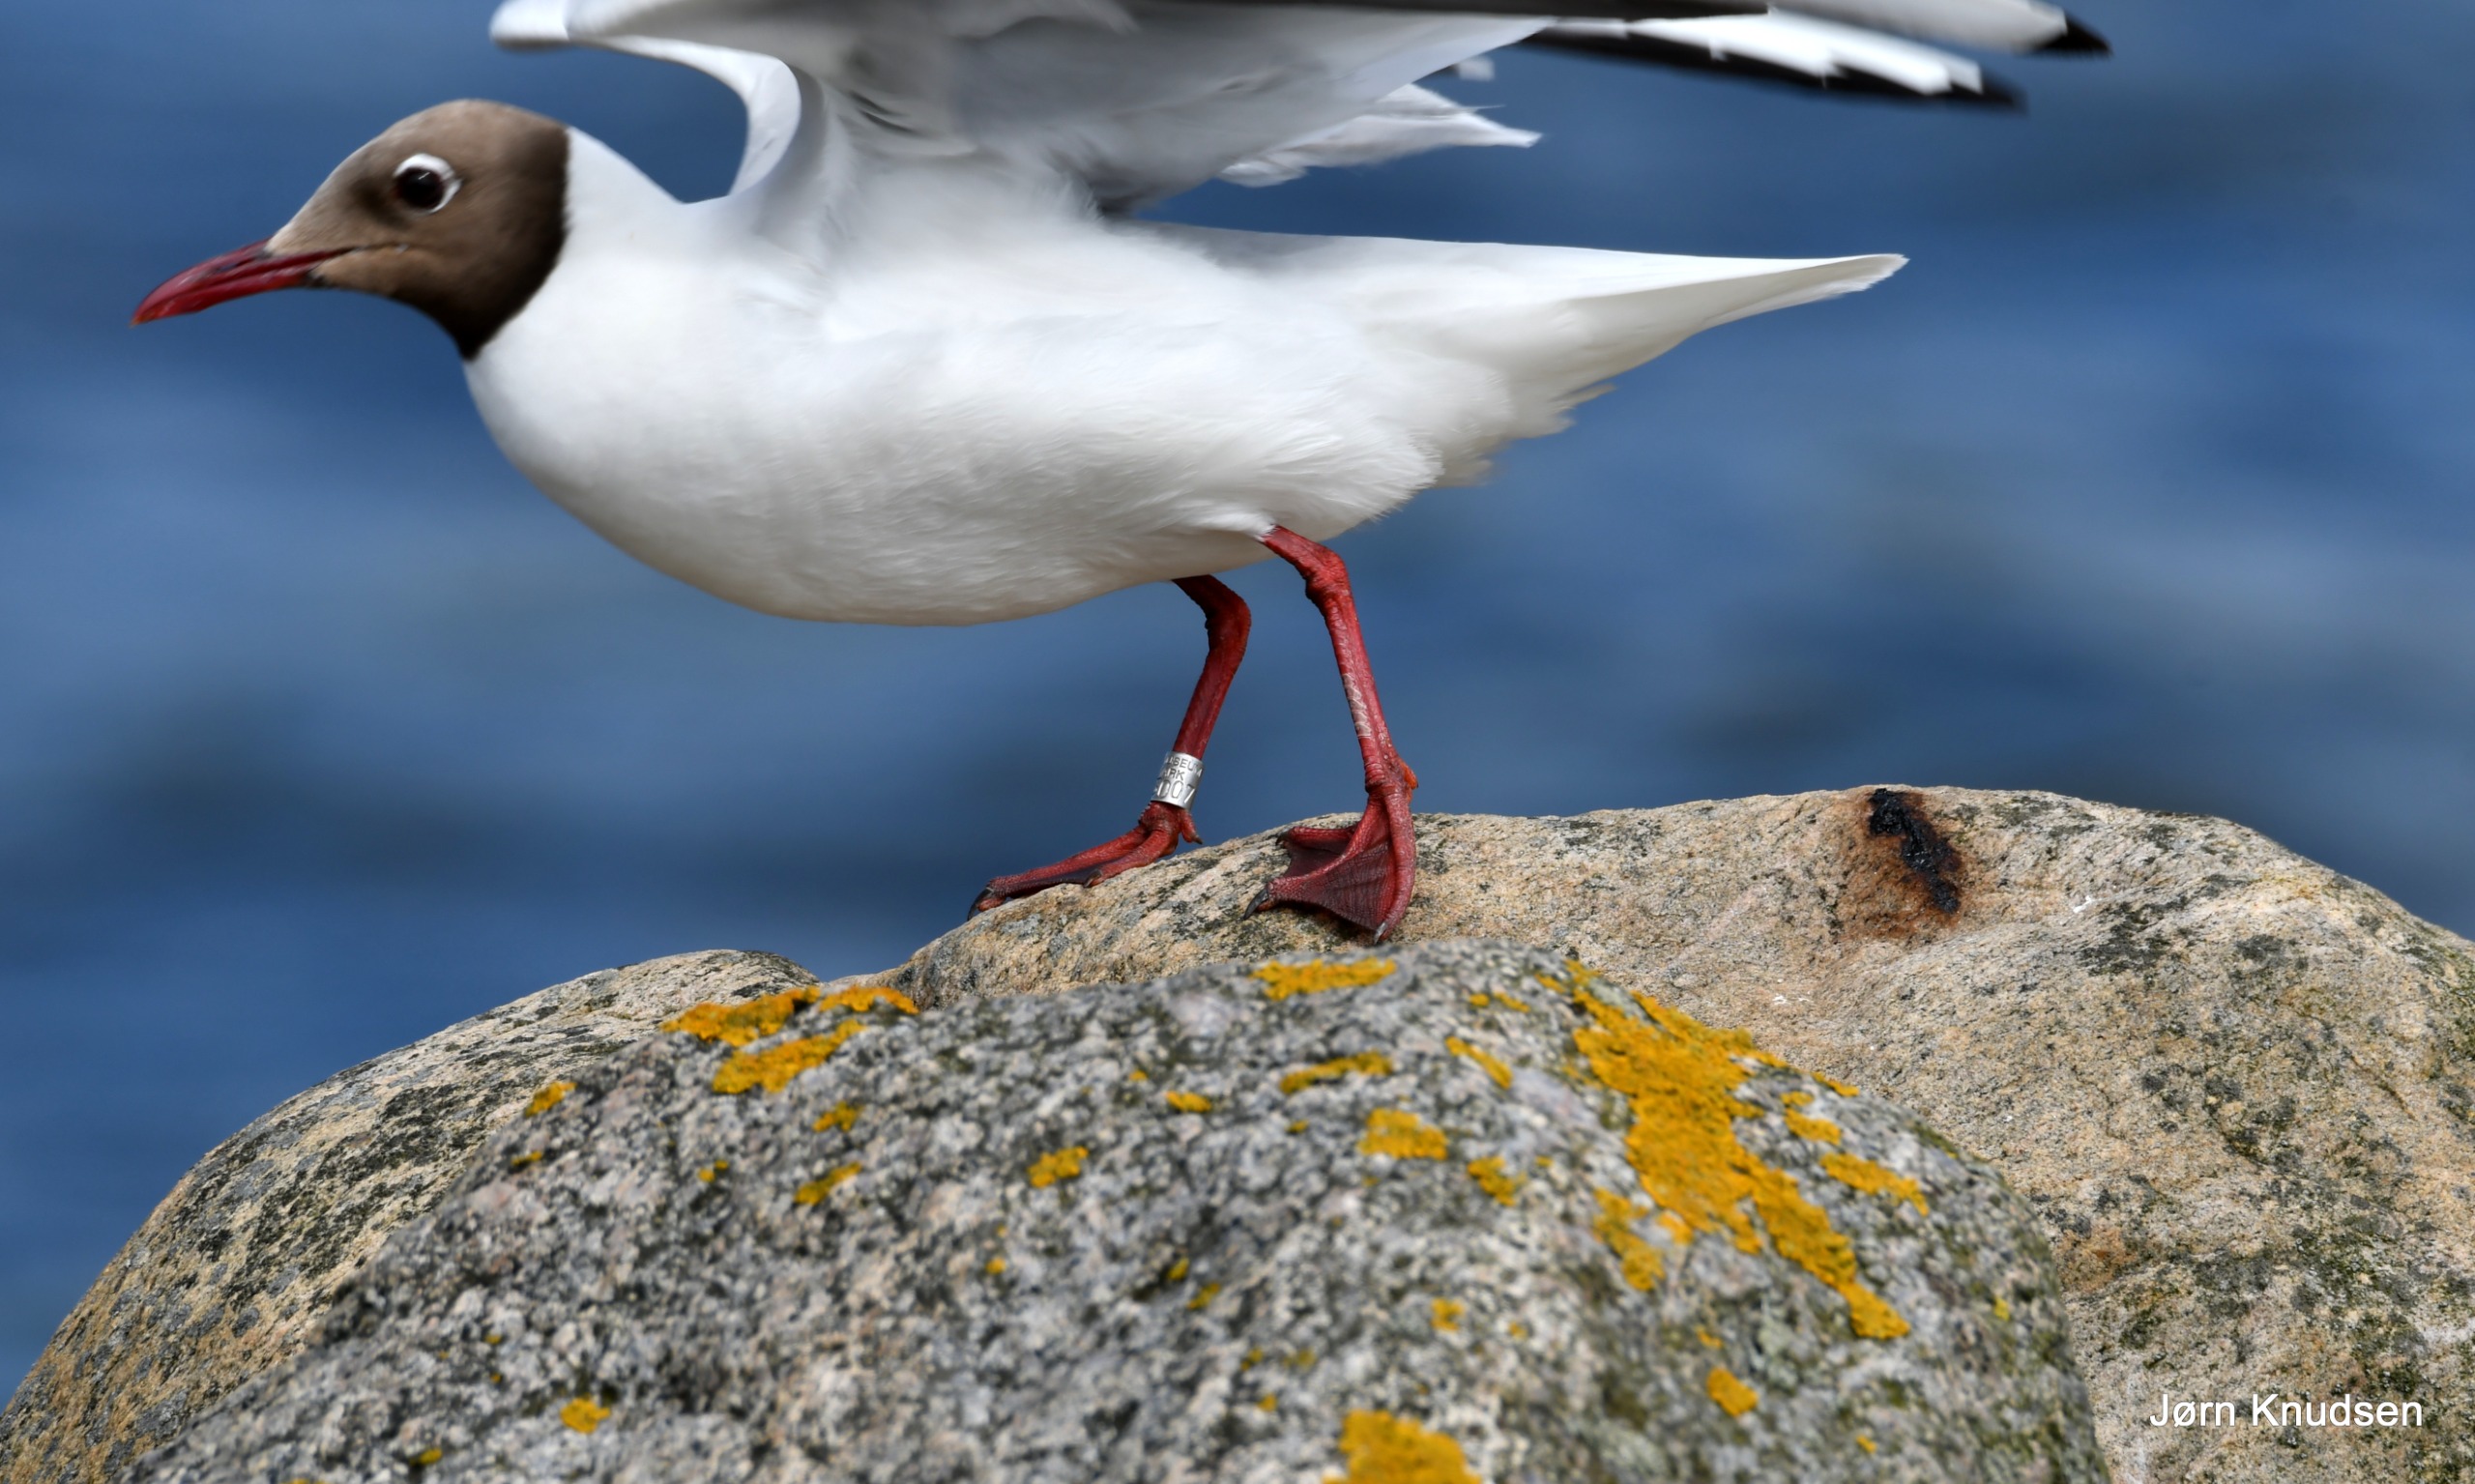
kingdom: Animalia
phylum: Chordata
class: Aves
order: Charadriiformes
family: Laridae
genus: Chroicocephalus
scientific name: Chroicocephalus ridibundus
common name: Hættemåge
